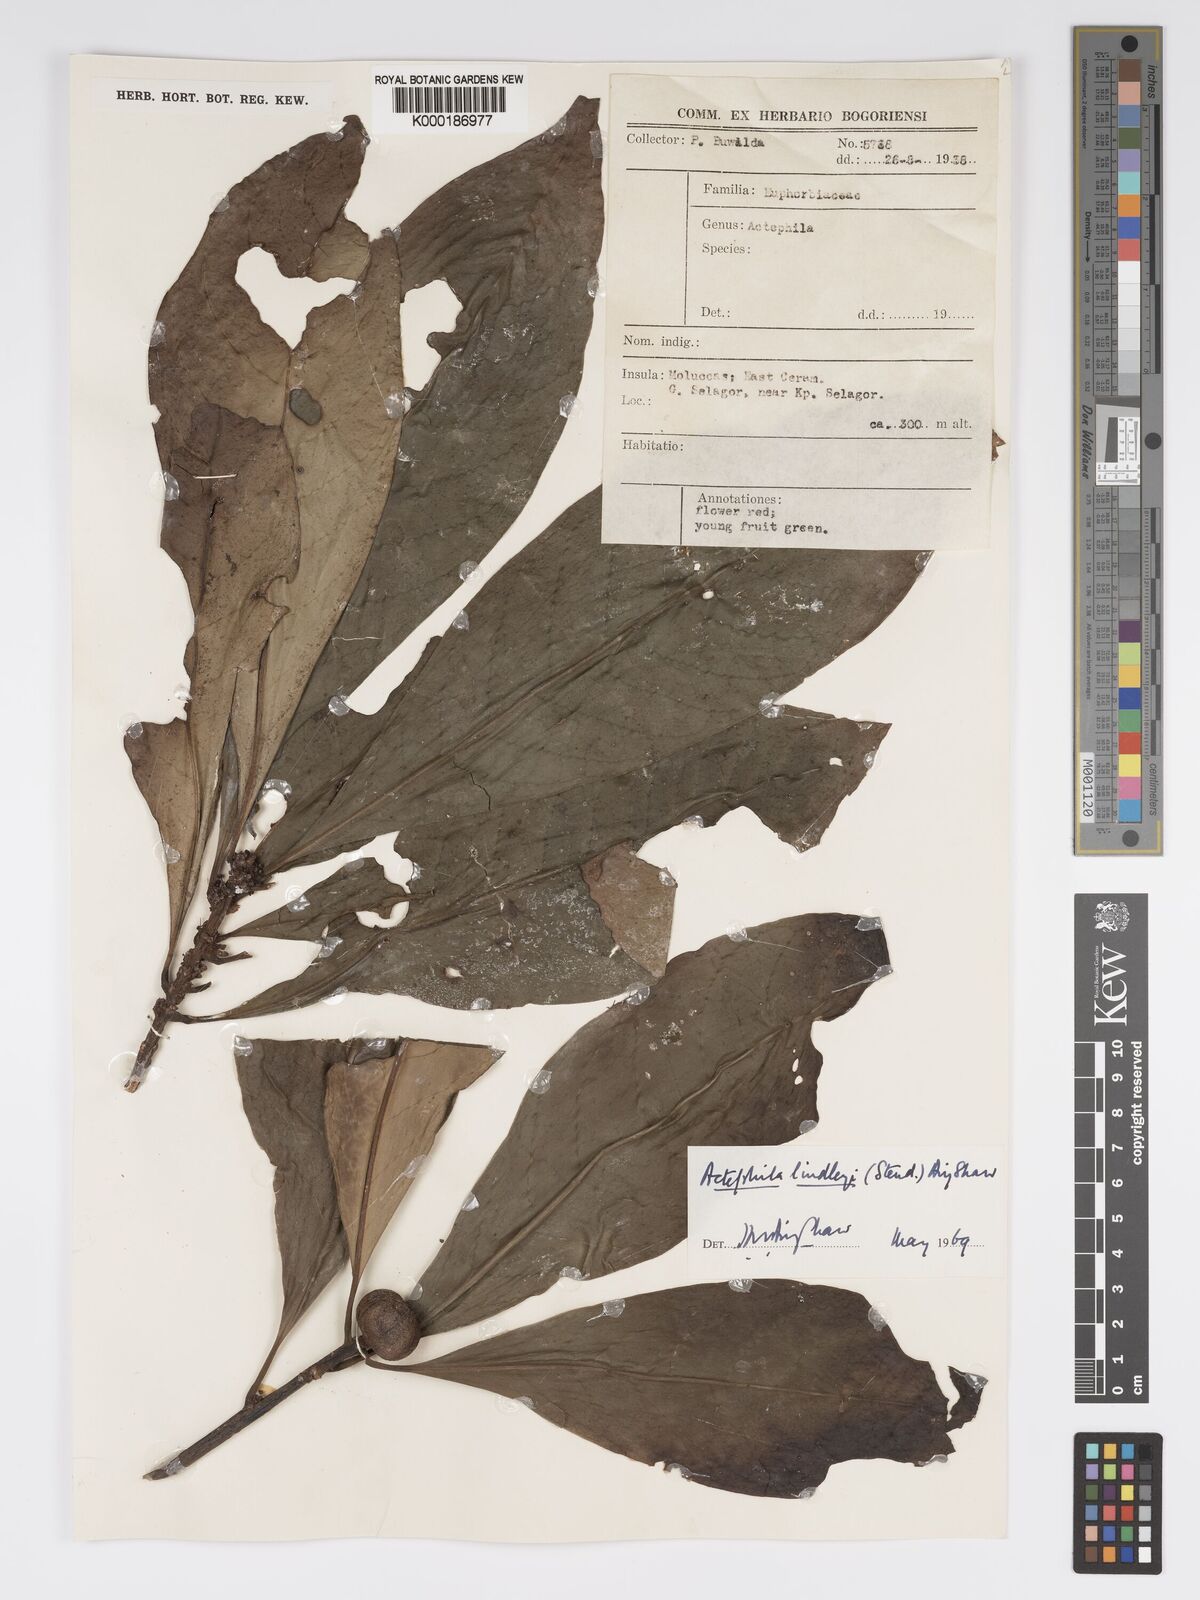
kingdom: Plantae
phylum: Tracheophyta
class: Magnoliopsida
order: Malpighiales
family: Phyllanthaceae
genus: Actephila
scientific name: Actephila lindleyi
